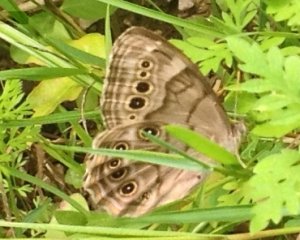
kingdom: Animalia
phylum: Arthropoda
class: Insecta
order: Lepidoptera
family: Nymphalidae
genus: Lethe
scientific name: Lethe anthedon
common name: Northern Pearly-Eye
